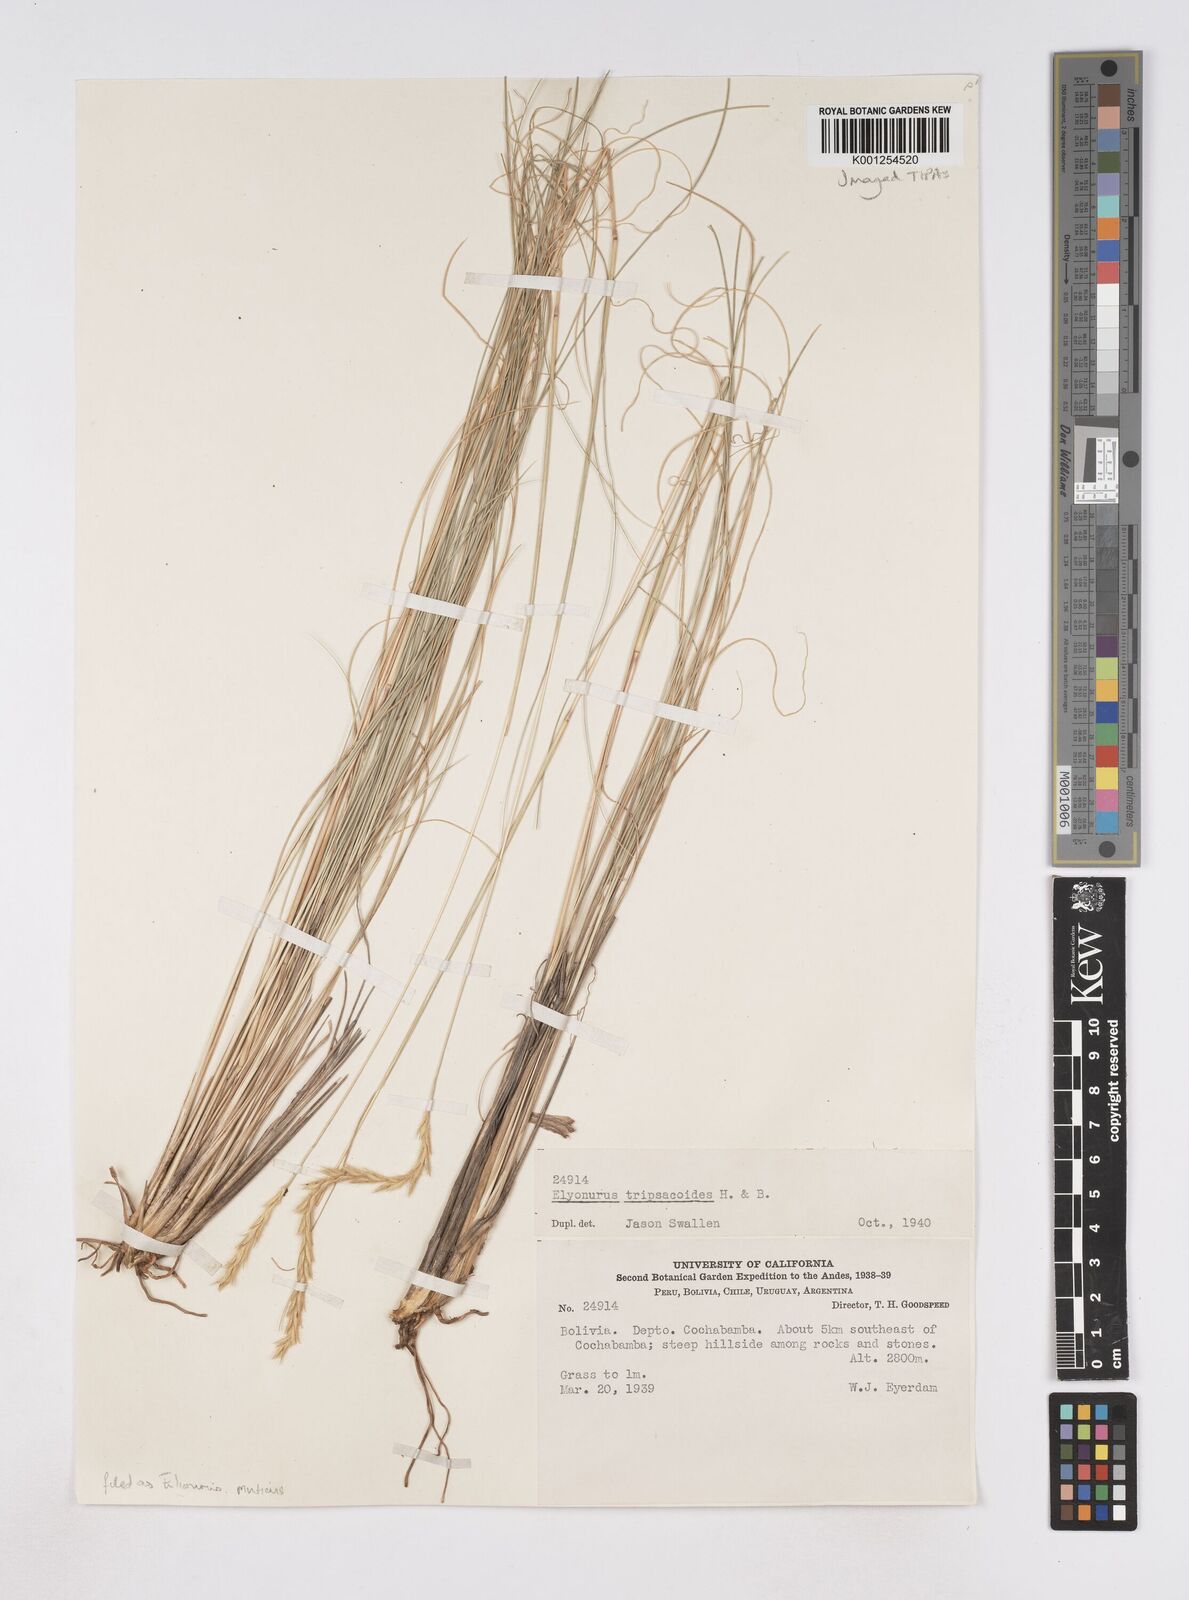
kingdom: Plantae
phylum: Tracheophyta
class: Liliopsida
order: Poales
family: Poaceae
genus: Elionurus
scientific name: Elionurus muticus
